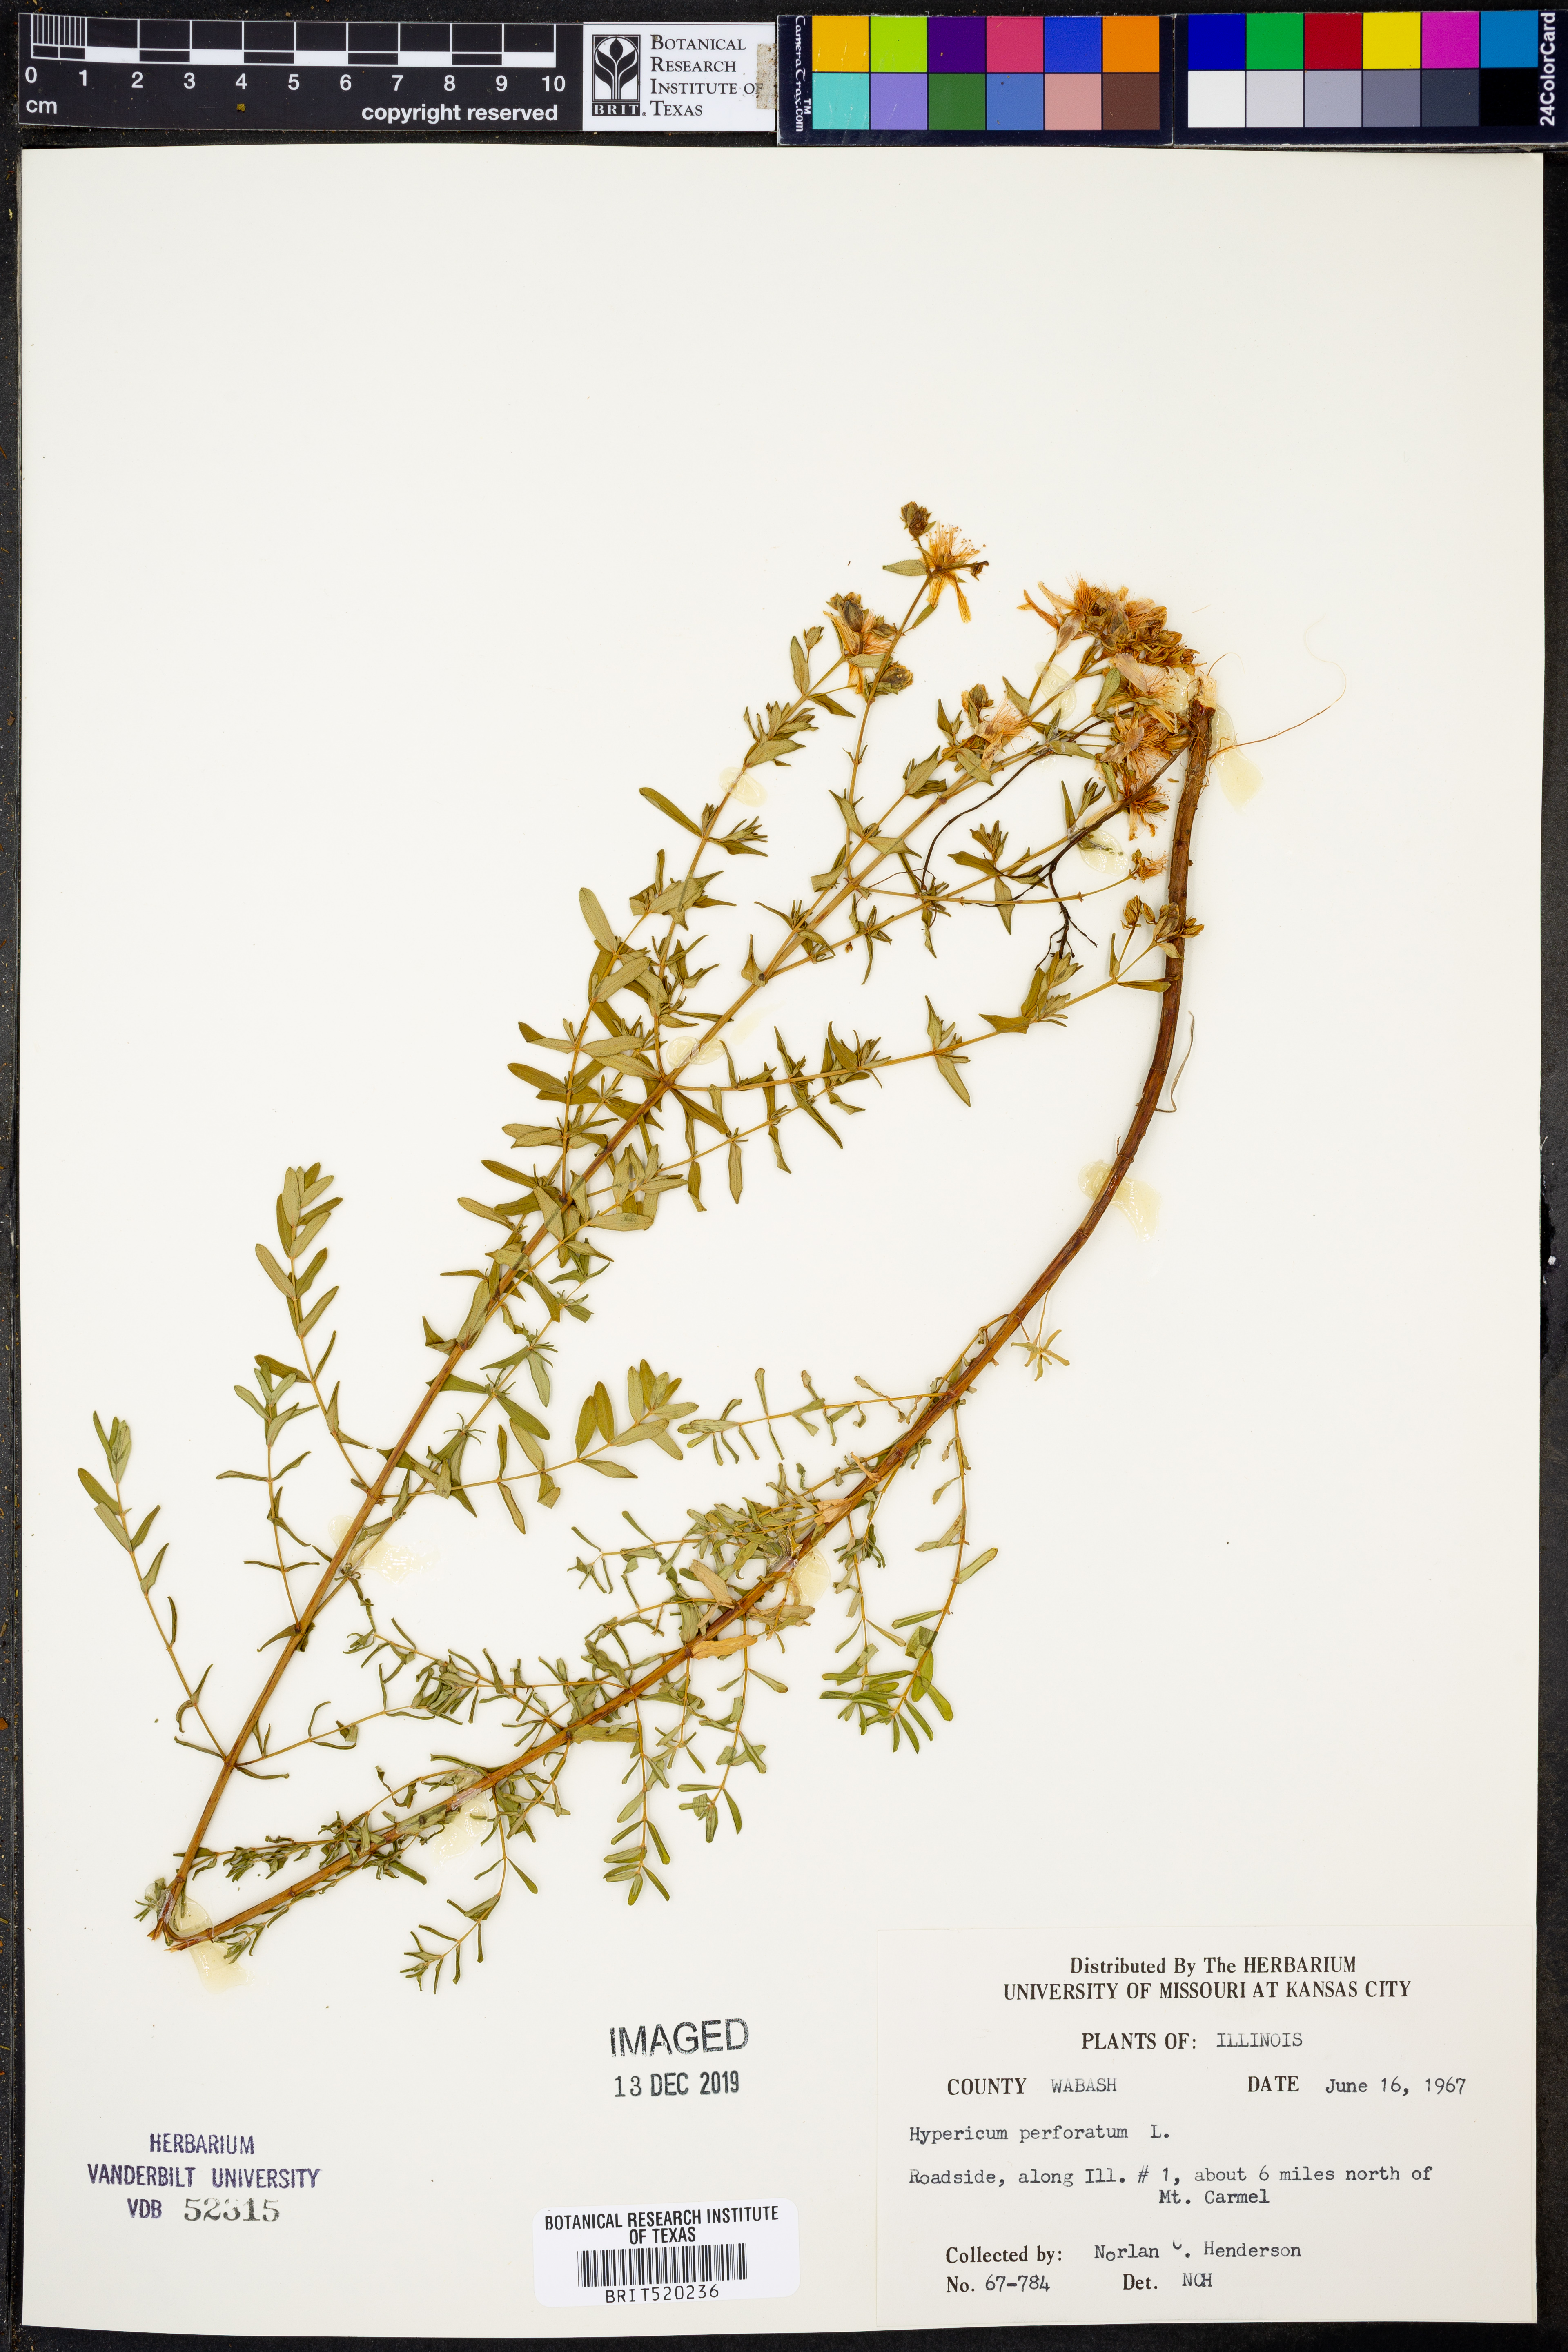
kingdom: Plantae
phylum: Tracheophyta
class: Magnoliopsida
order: Malpighiales
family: Hypericaceae
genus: Hypericum
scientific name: Hypericum perforatum
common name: Common st. johnswort
